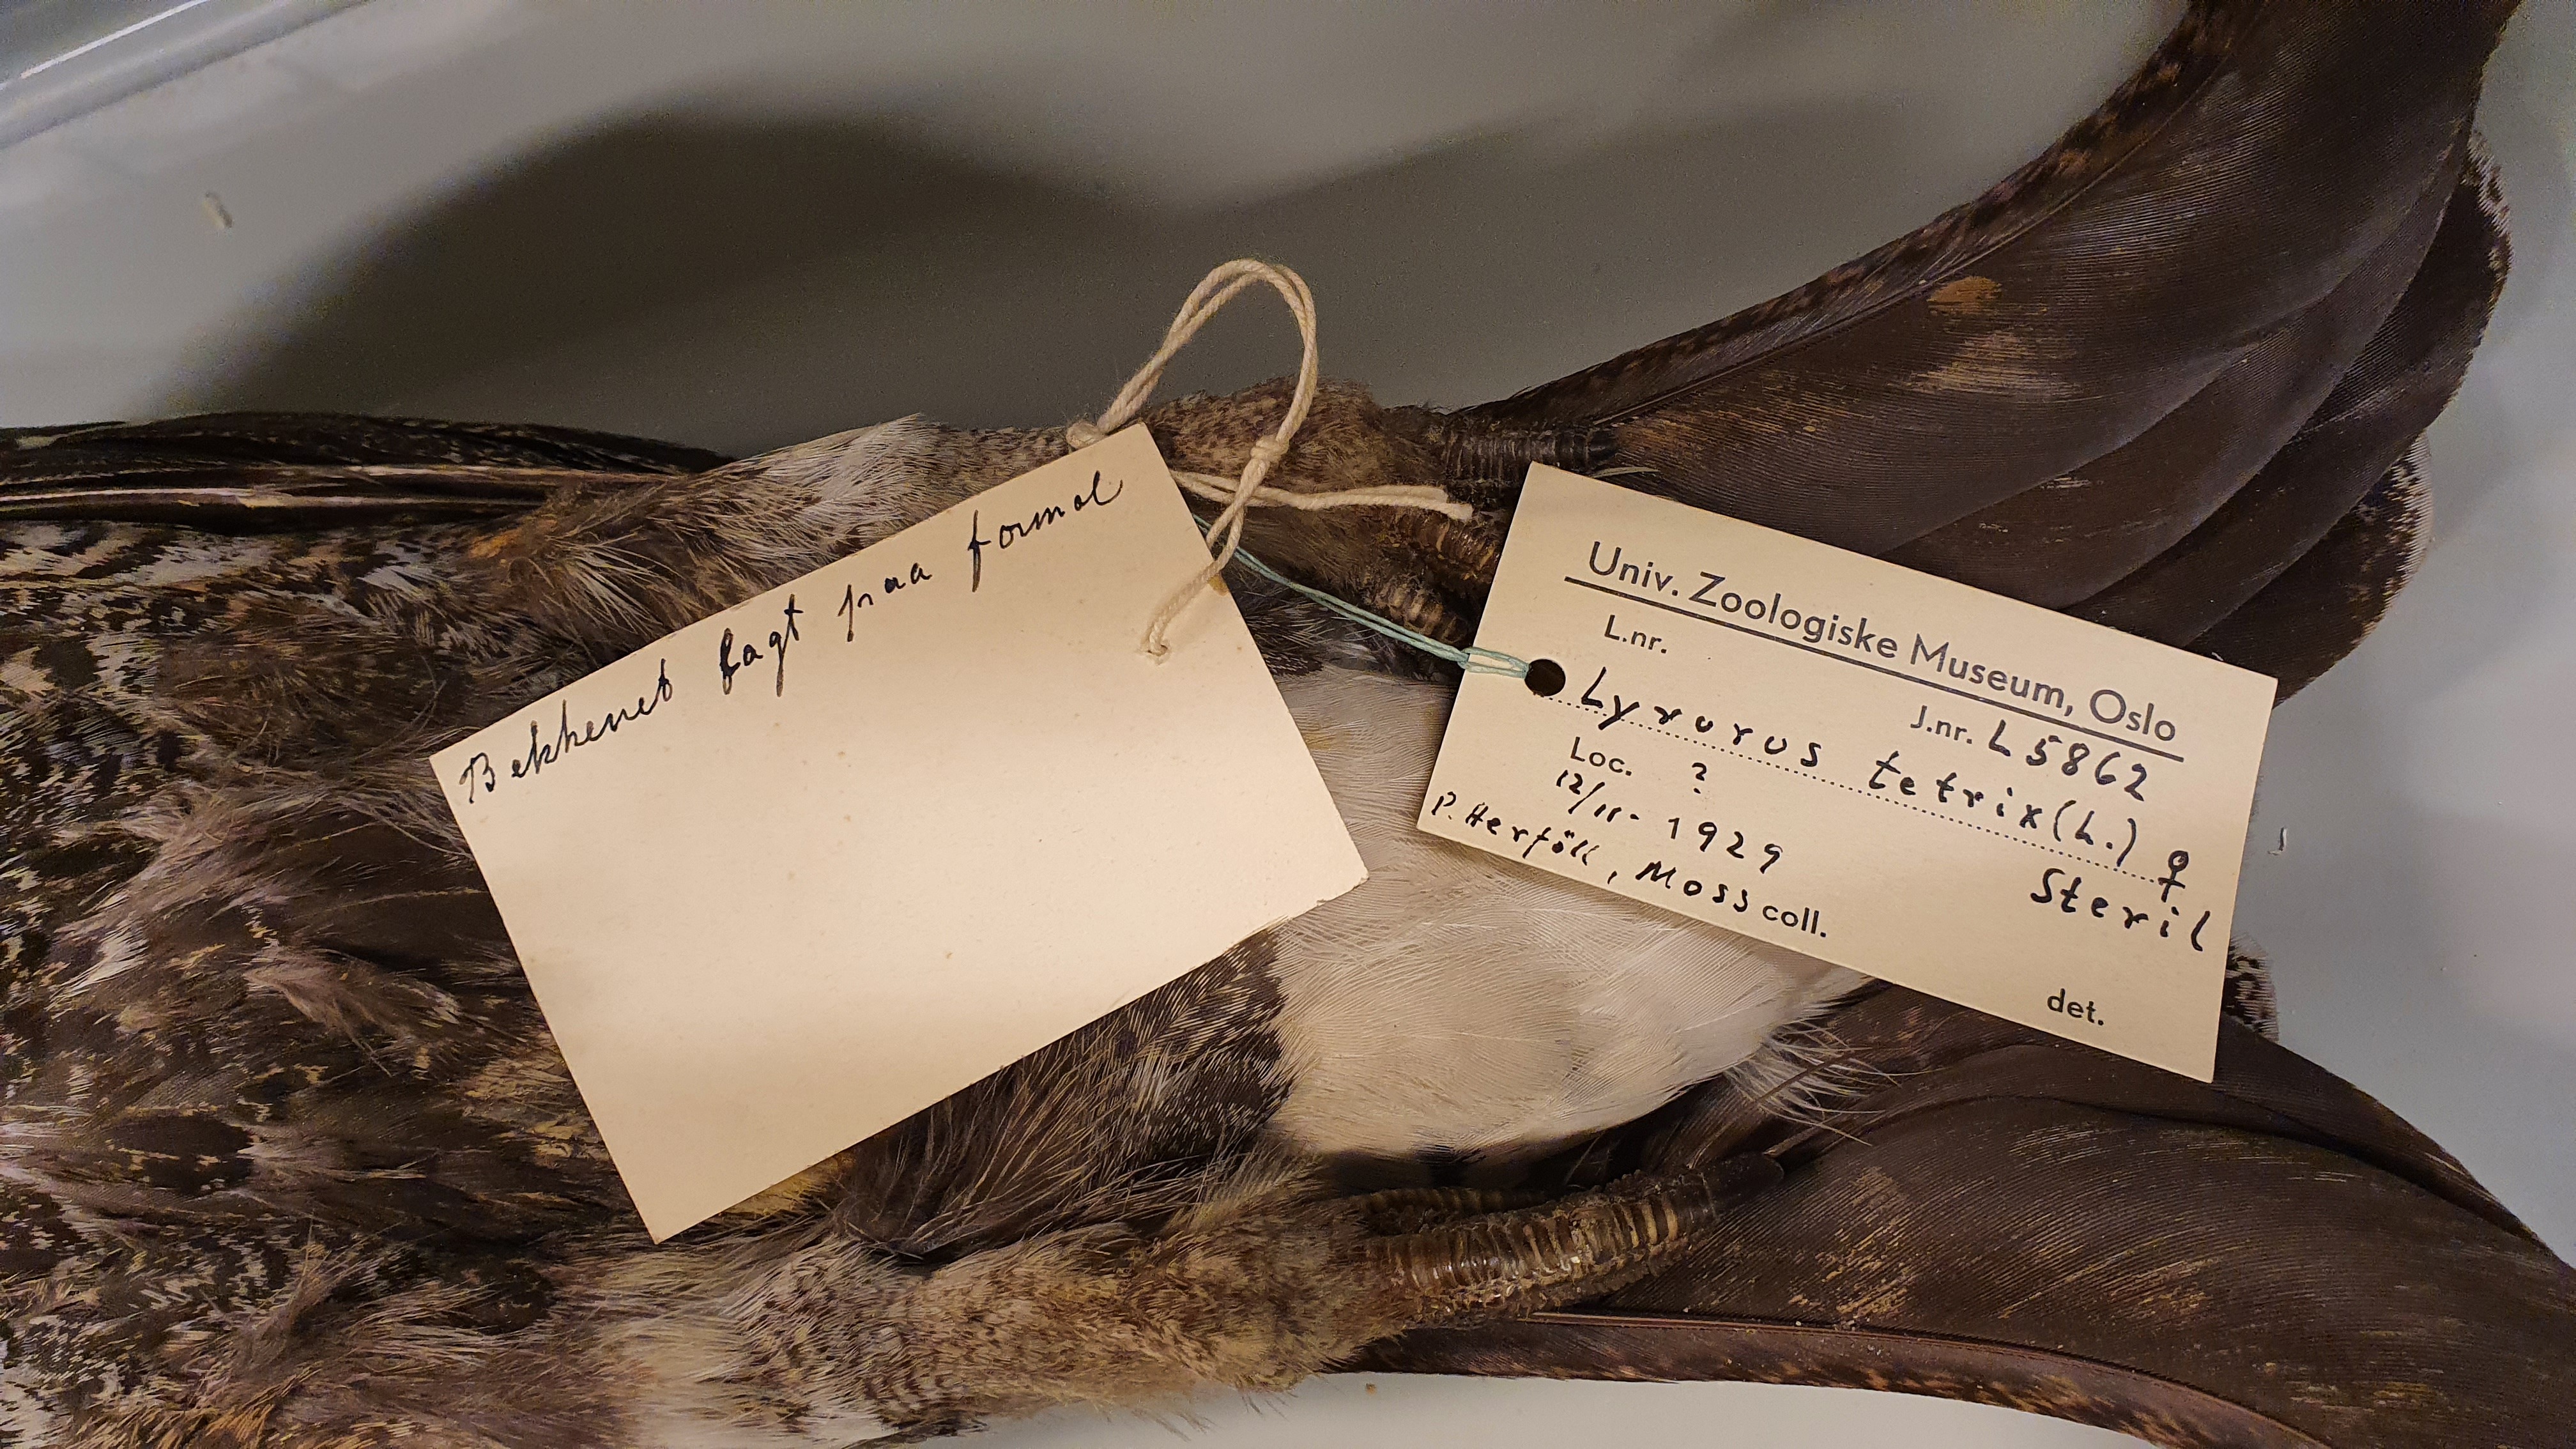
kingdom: Animalia
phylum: Chordata
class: Aves
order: Galliformes
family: Phasianidae
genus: Lyrurus
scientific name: Lyrurus tetrix
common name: Black grouse
